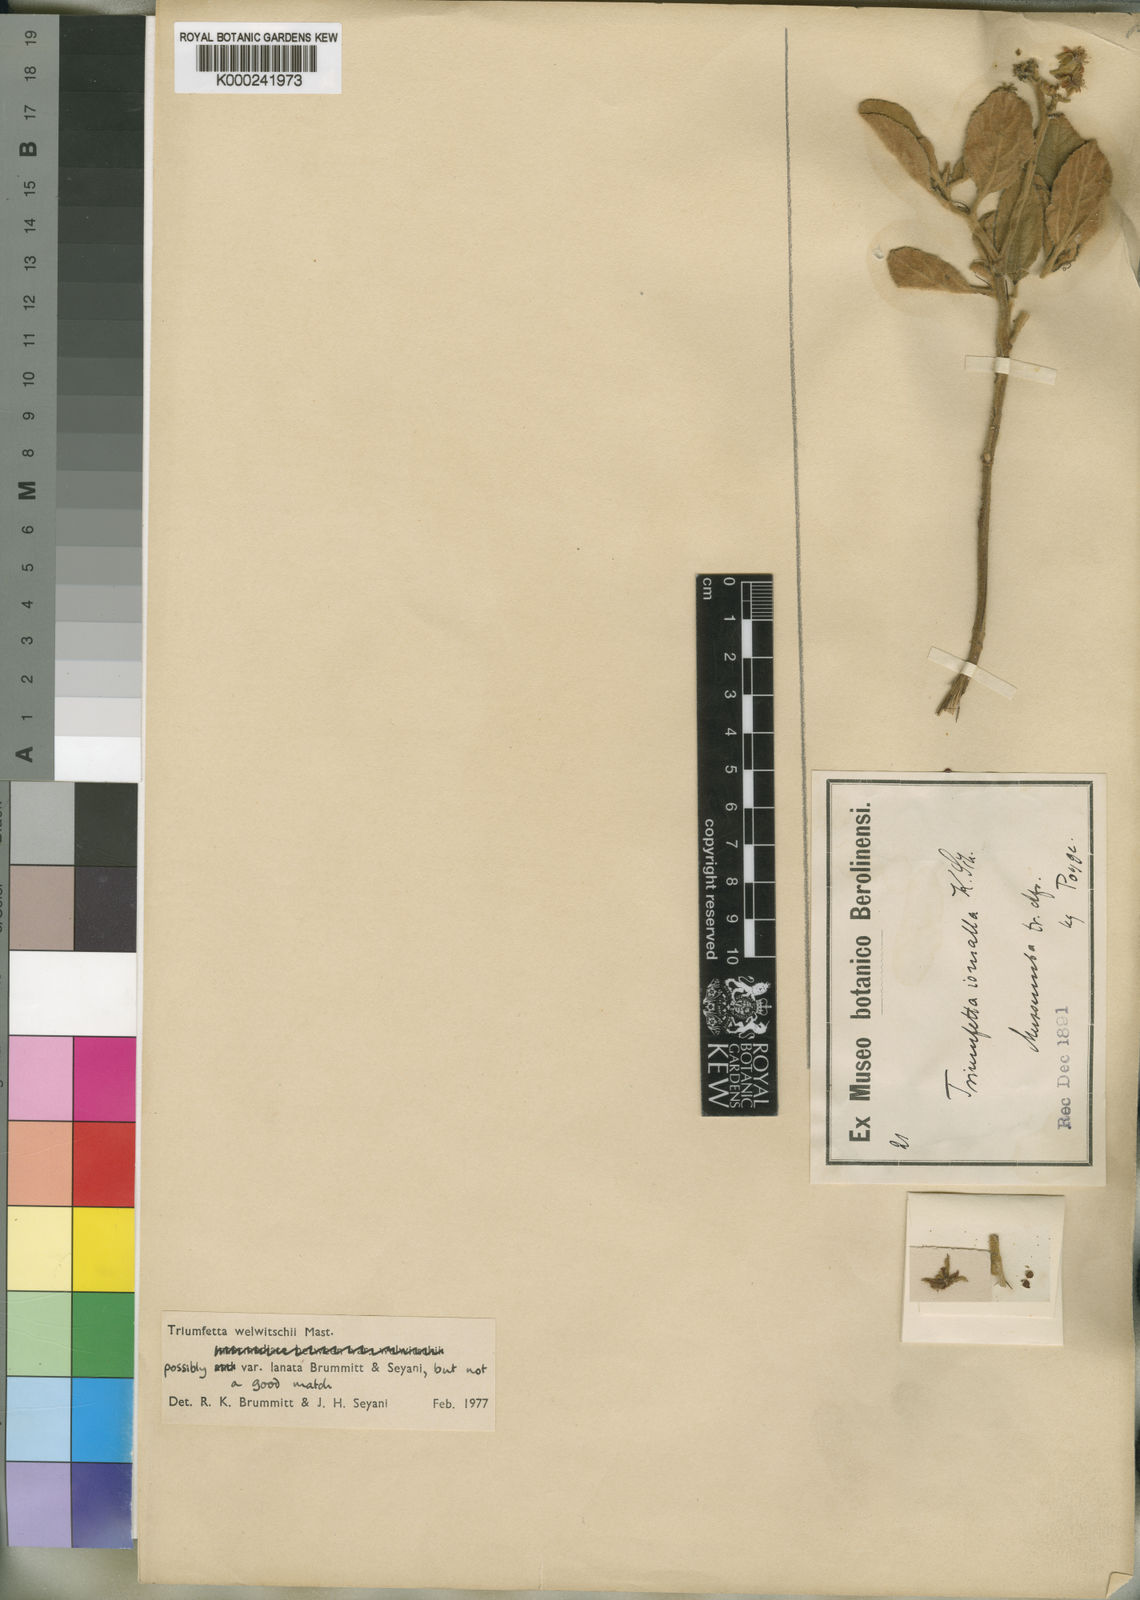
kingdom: Plantae
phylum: Tracheophyta
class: Magnoliopsida
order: Malvales
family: Malvaceae
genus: Triumfetta
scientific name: Triumfetta welwitschii
